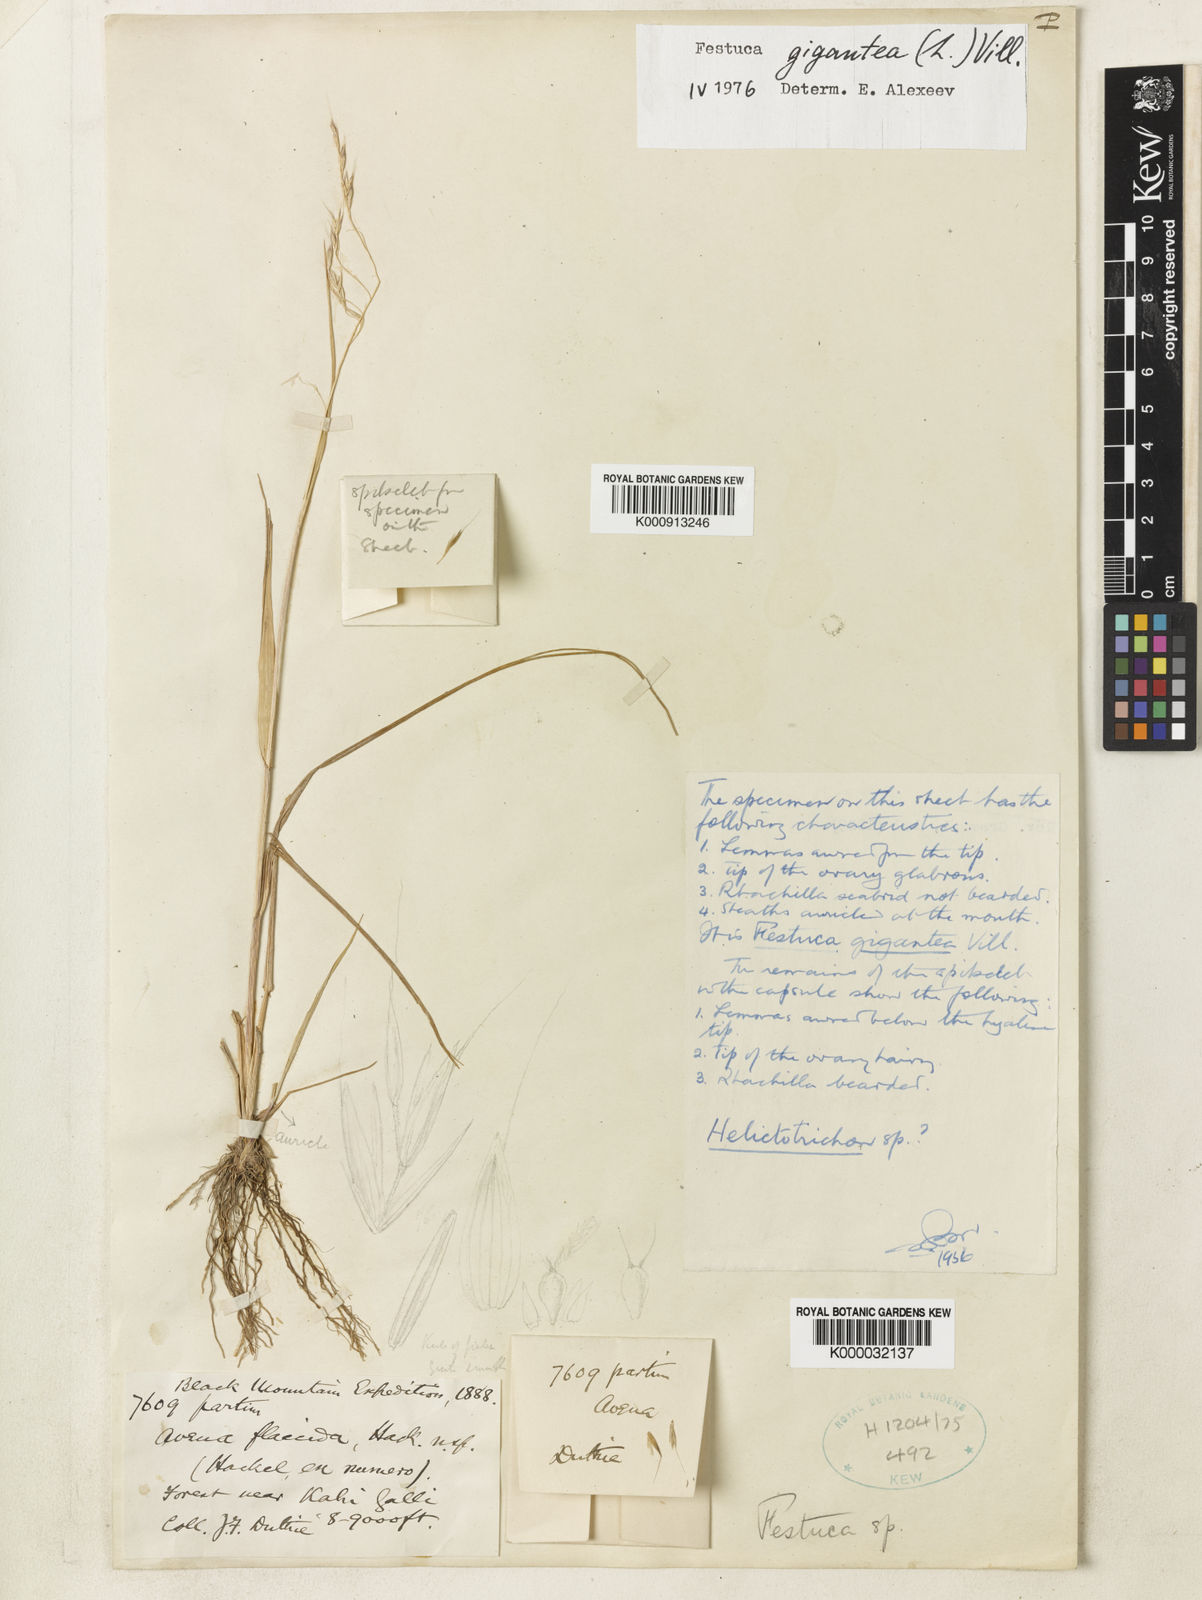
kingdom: Plantae
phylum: Tracheophyta
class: Liliopsida
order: Poales
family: Poaceae
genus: Lolium
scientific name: Lolium giganteum
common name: Giant fescue
